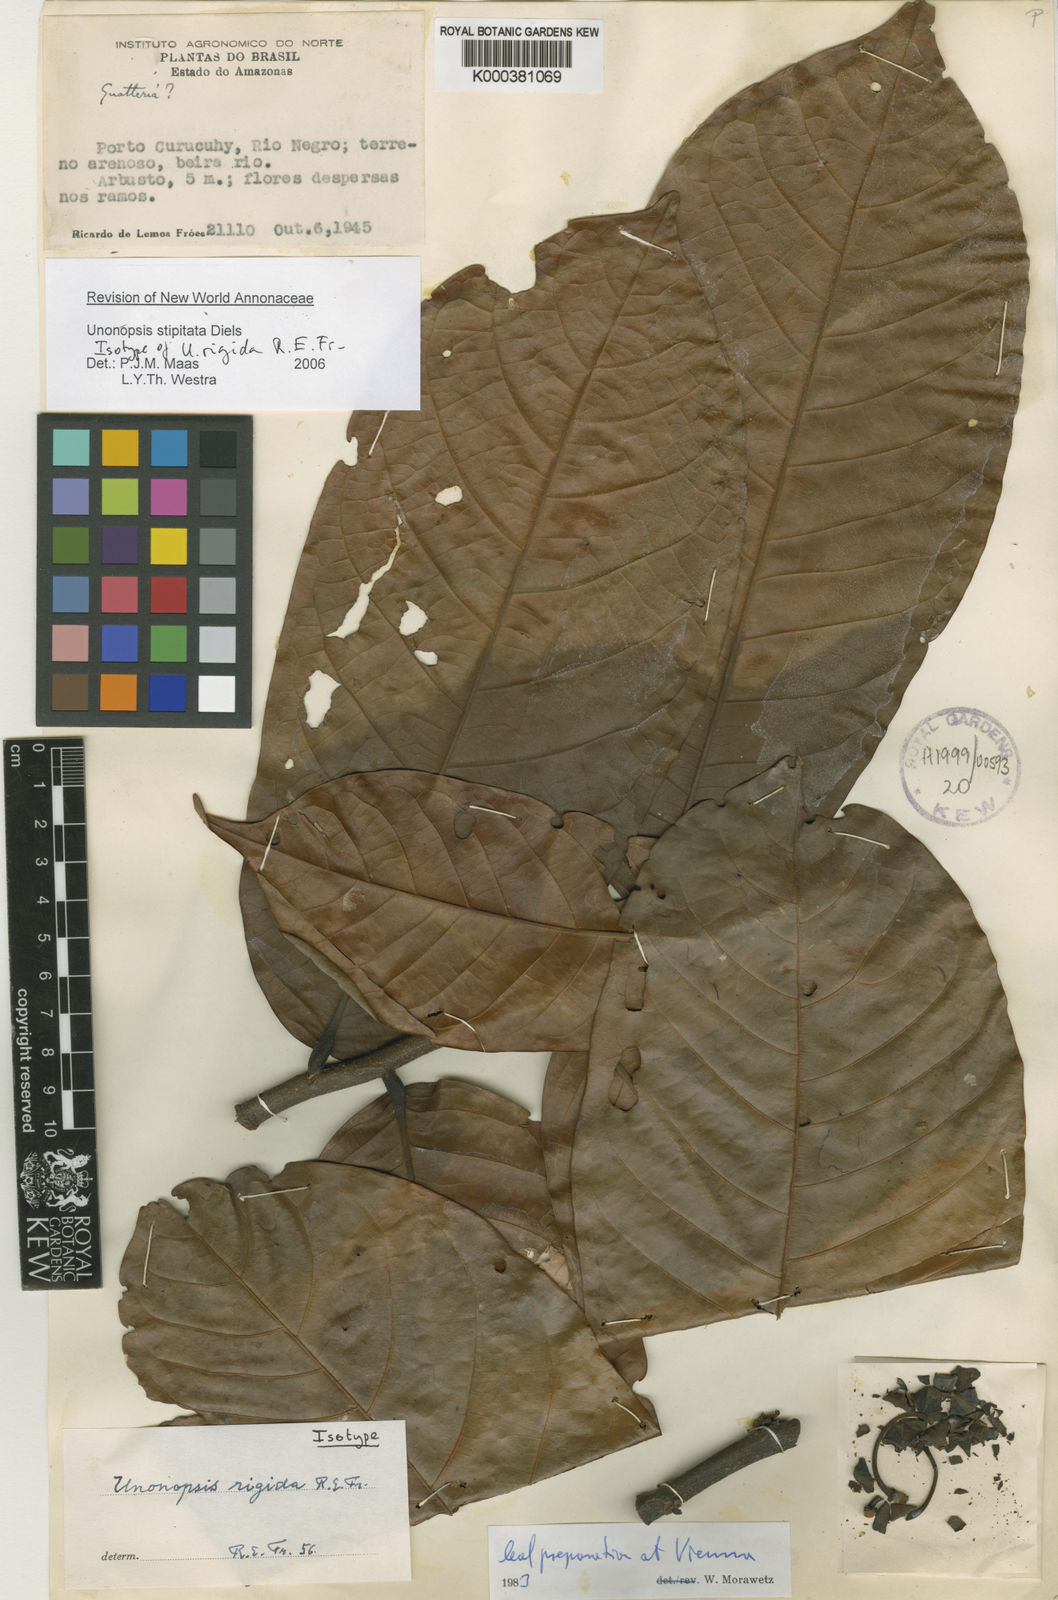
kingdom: Plantae
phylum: Tracheophyta
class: Magnoliopsida
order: Magnoliales
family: Annonaceae
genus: Unonopsis
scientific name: Unonopsis stipitata
